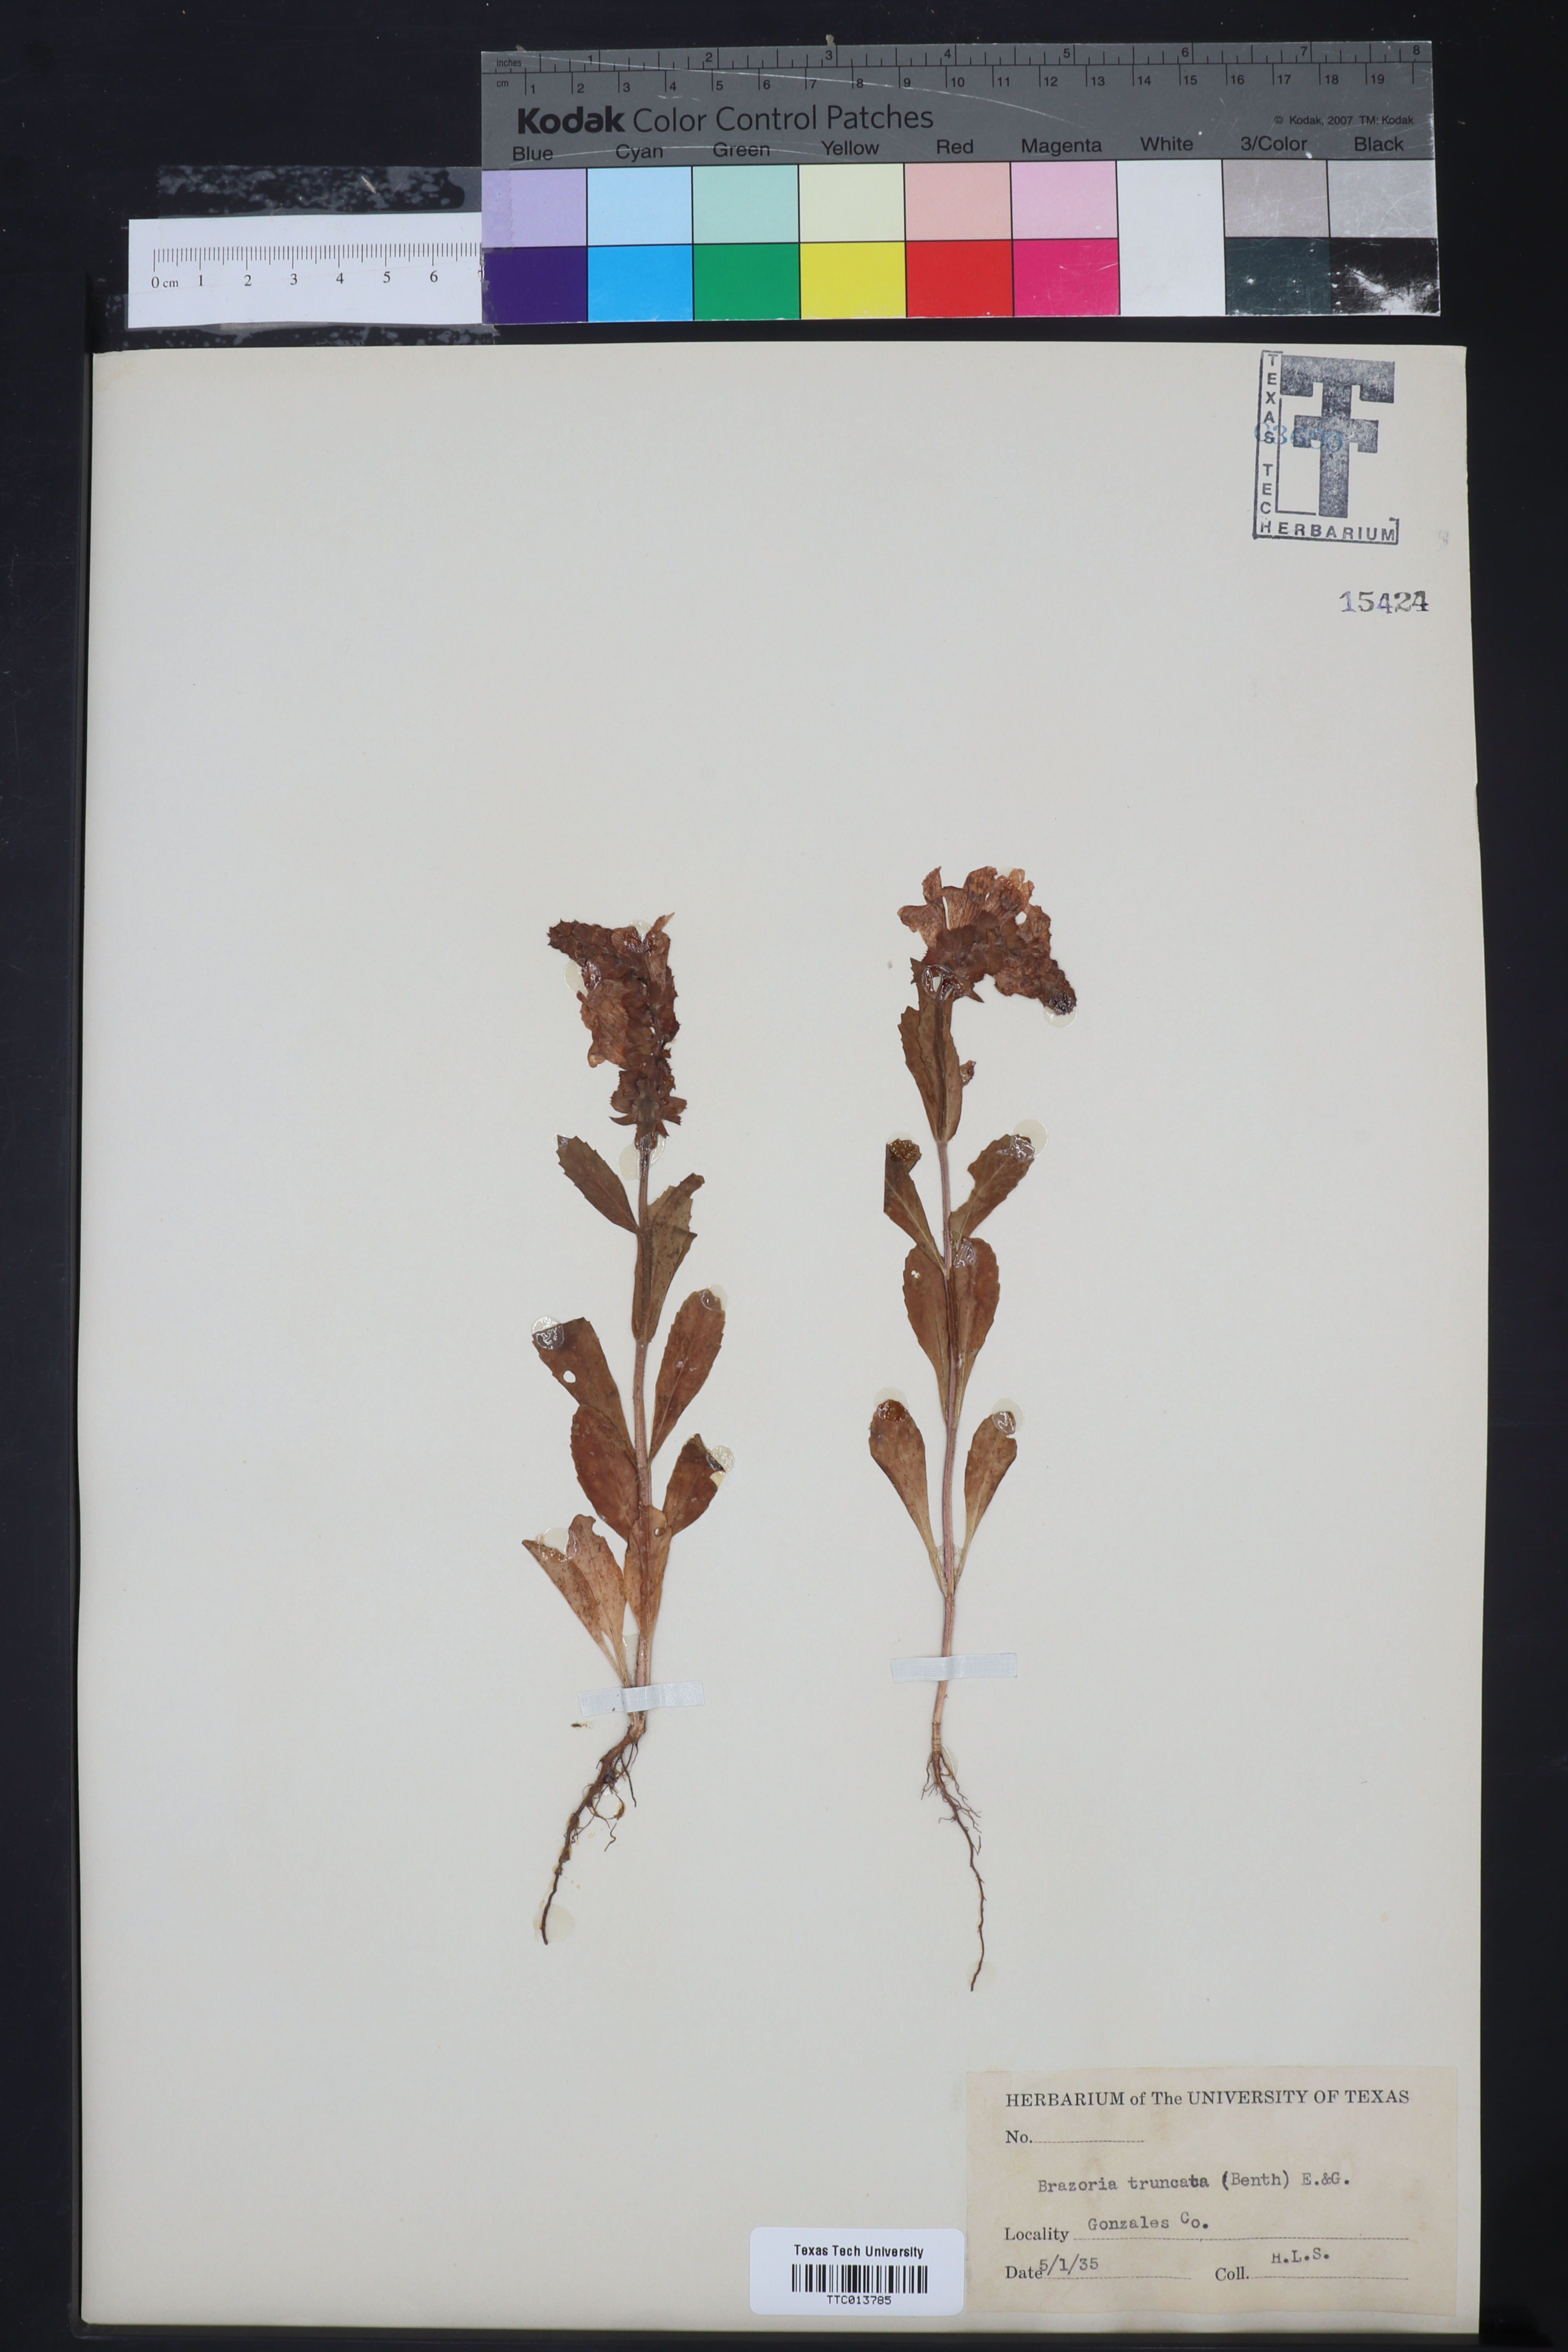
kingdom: Plantae
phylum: Tracheophyta
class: Magnoliopsida
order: Lamiales
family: Lamiaceae
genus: Brazoria
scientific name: Brazoria truncata
